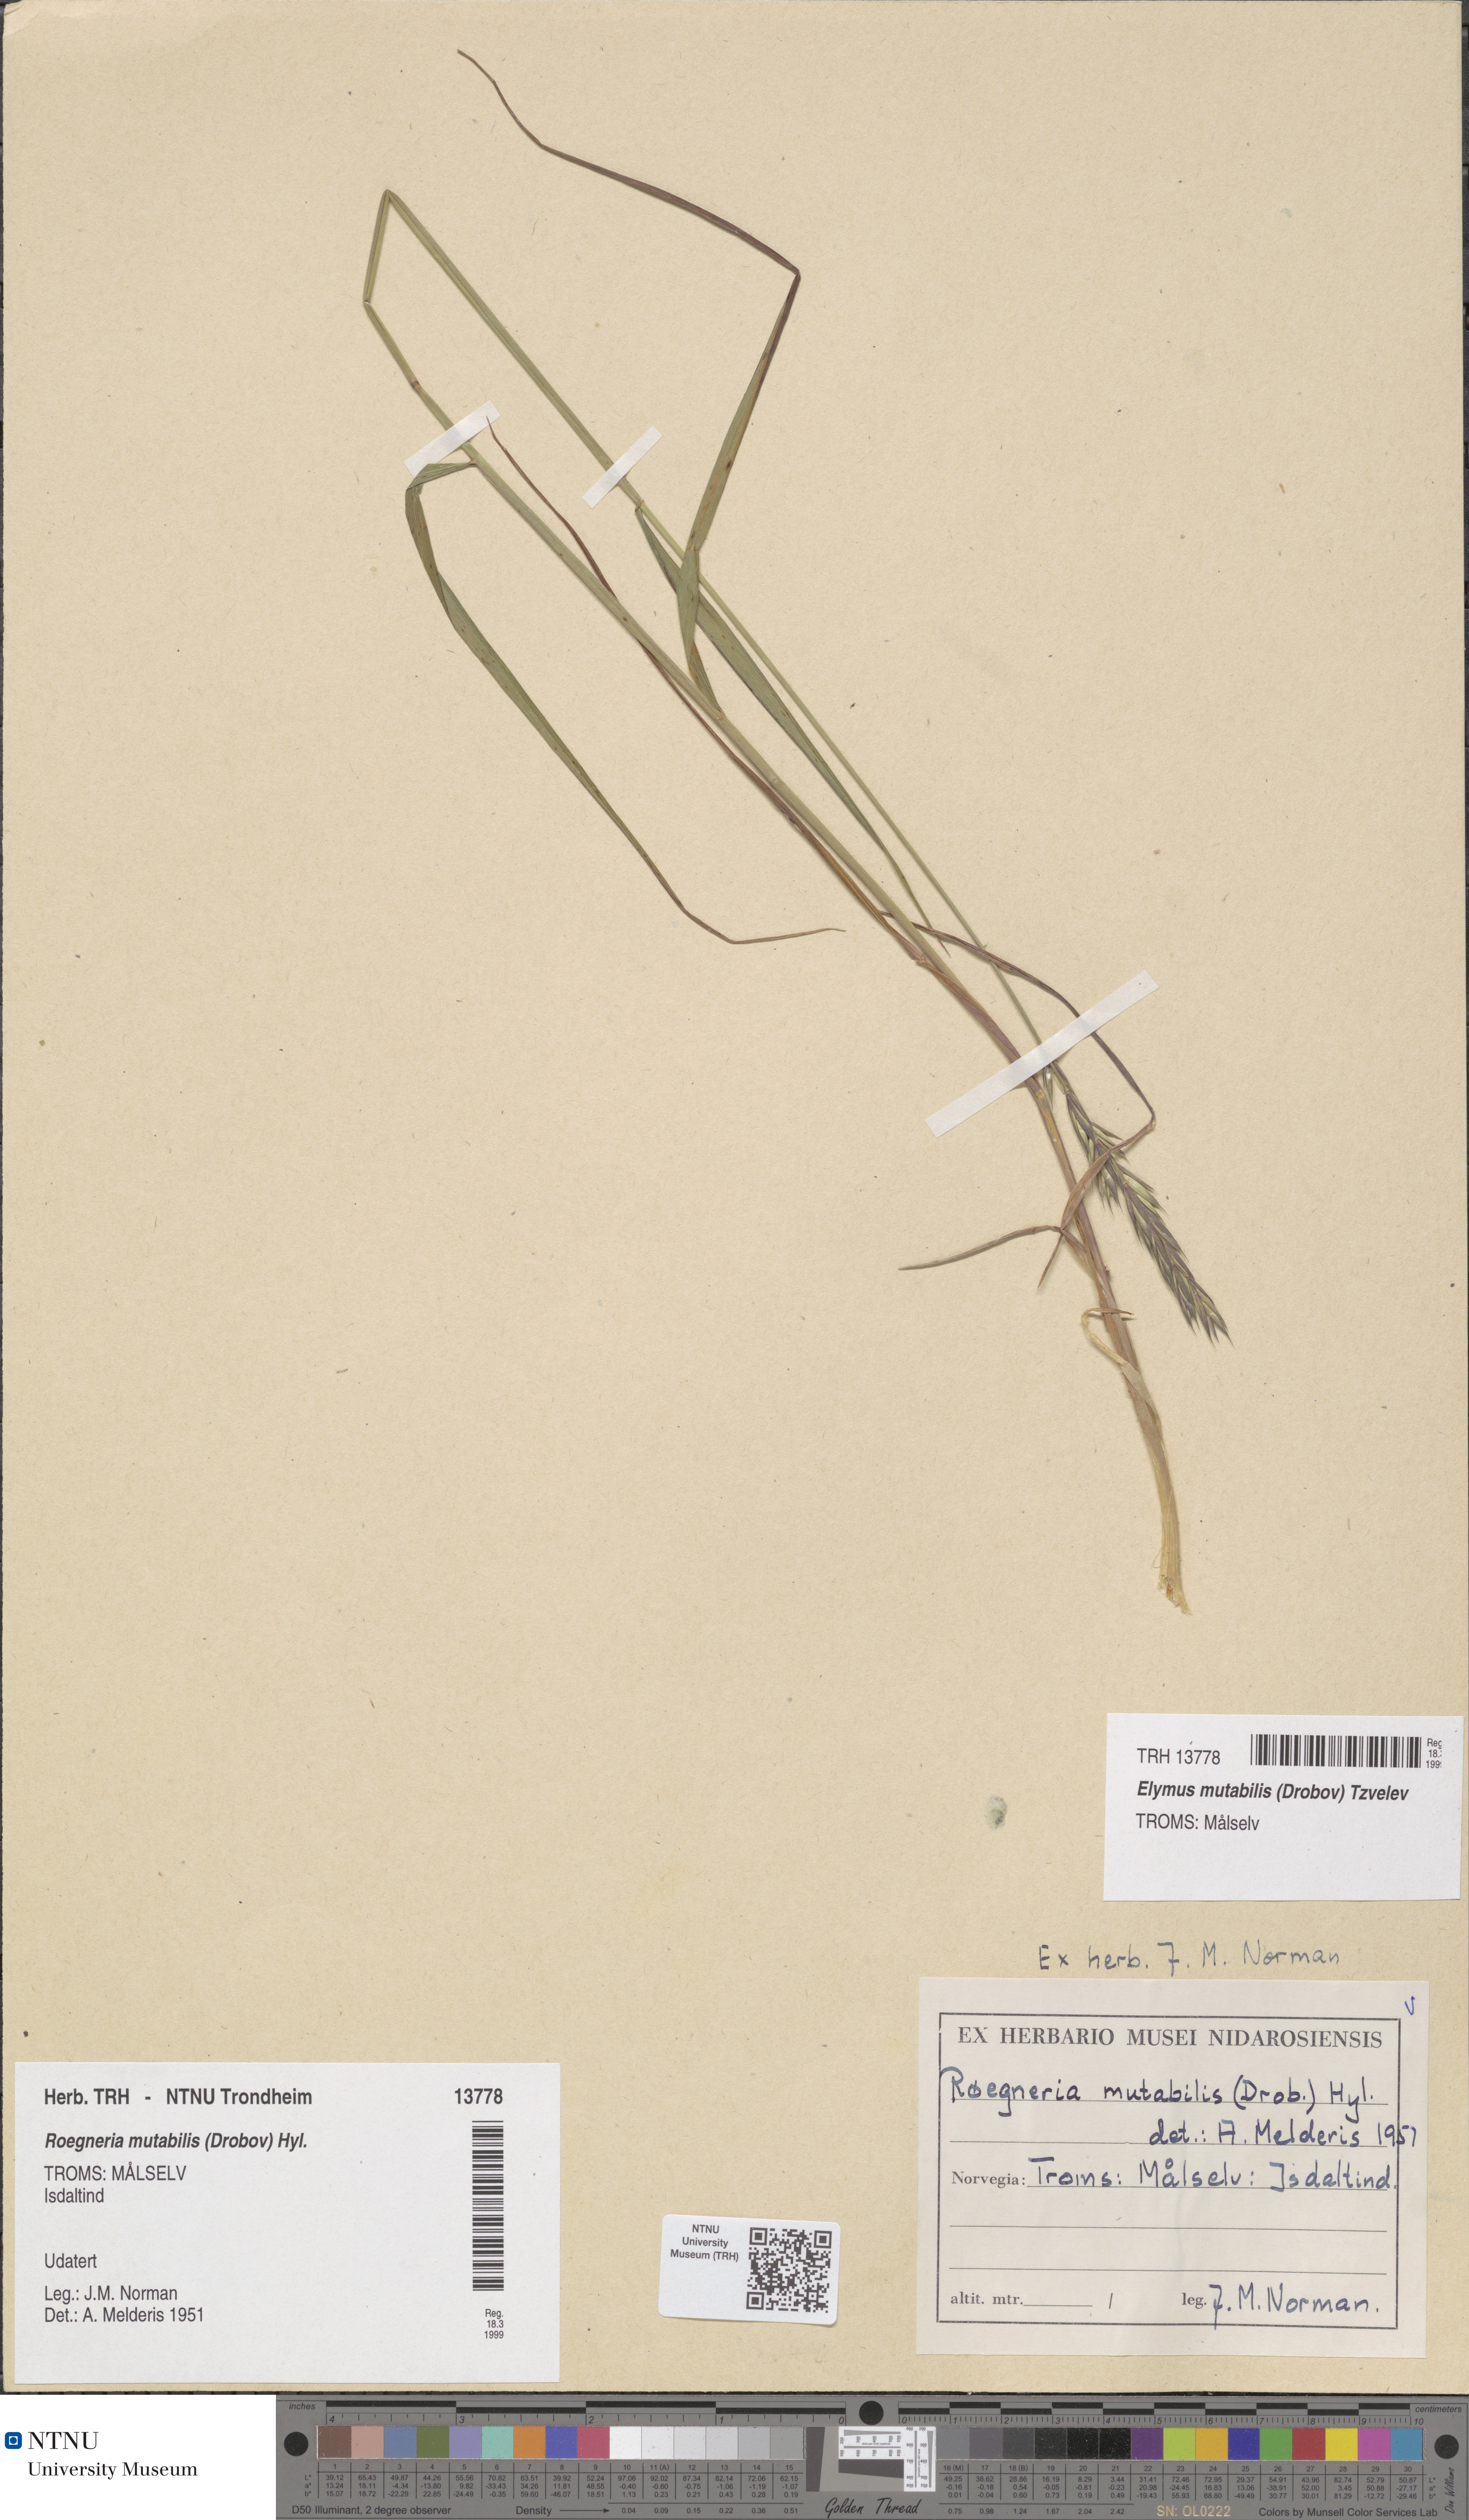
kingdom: Plantae
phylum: Tracheophyta
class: Liliopsida
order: Poales
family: Poaceae
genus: Elymus
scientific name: Elymus mutabilis
